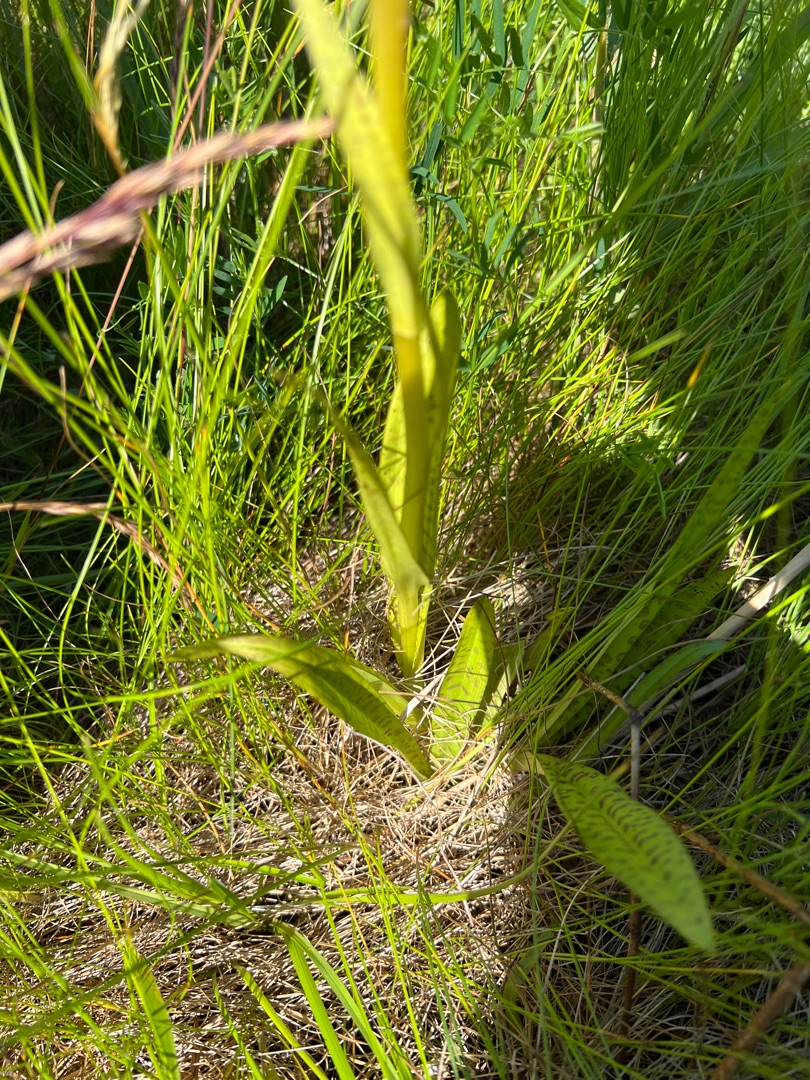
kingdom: Plantae
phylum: Tracheophyta
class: Liliopsida
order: Asparagales
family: Orchidaceae
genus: Dactylorhiza
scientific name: Dactylorhiza majalis
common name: Ringplettet gøgeurt
